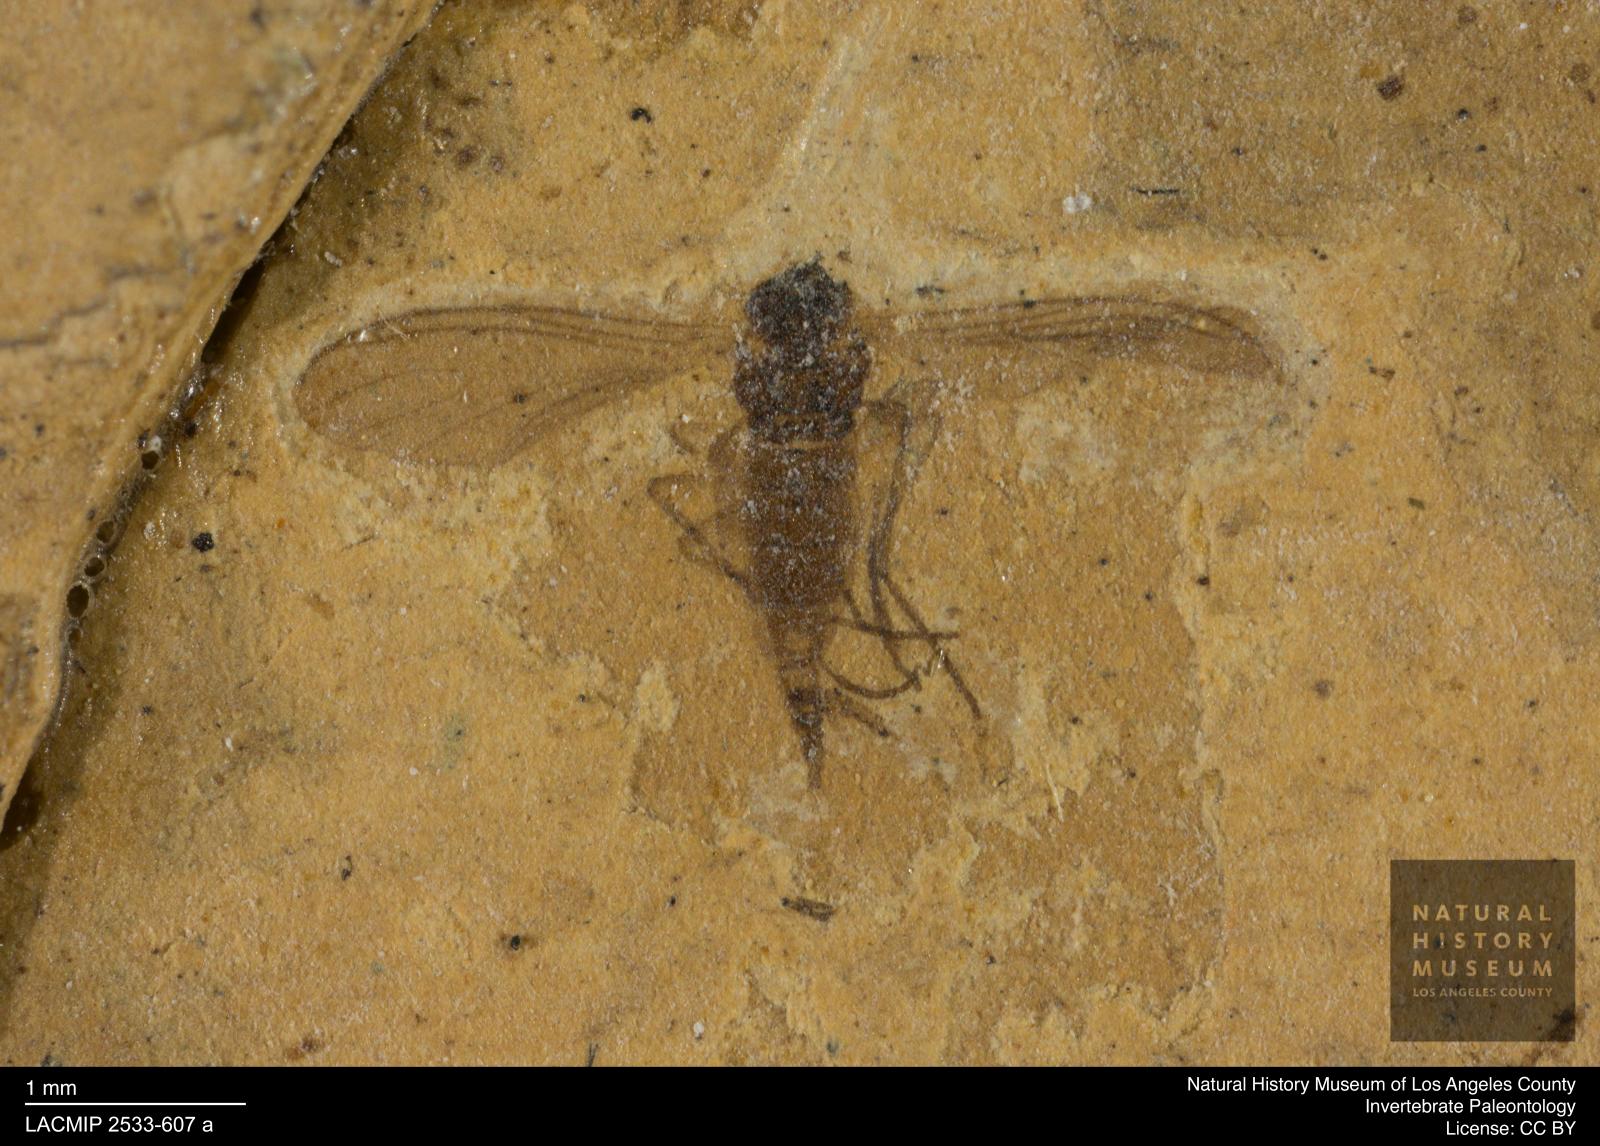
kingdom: Animalia
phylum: Arthropoda
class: Insecta
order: Diptera
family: Sciaridae
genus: Sciara
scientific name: Sciara thoracica
